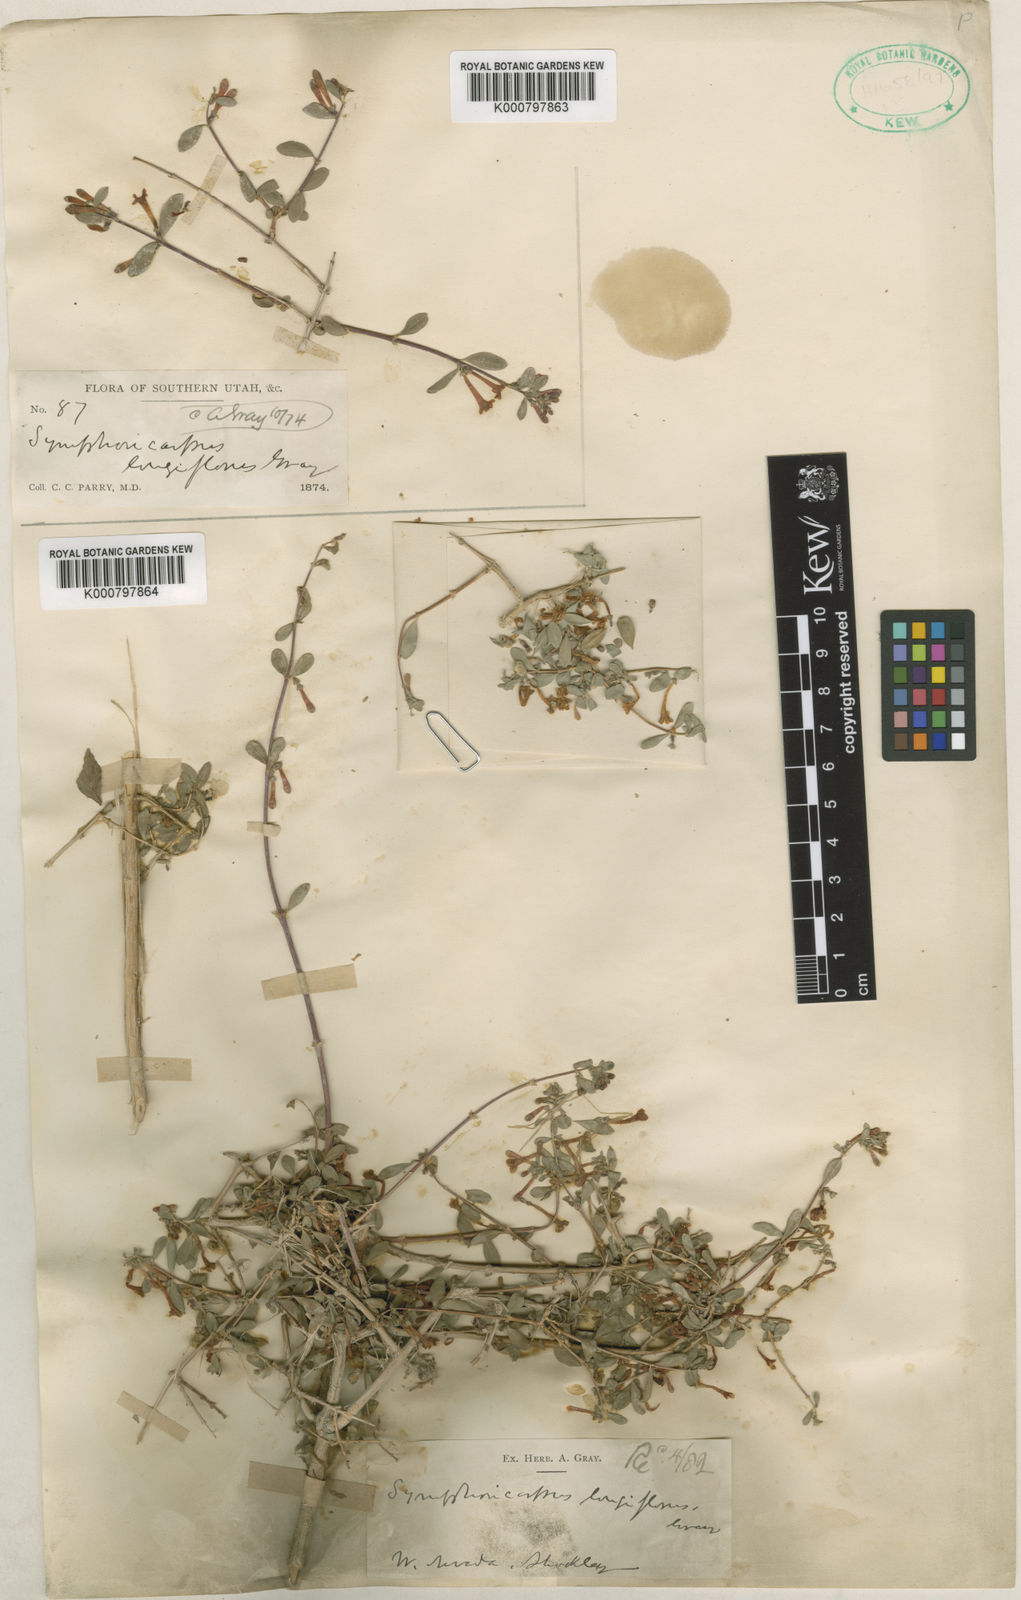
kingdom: Plantae
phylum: Tracheophyta
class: Magnoliopsida
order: Dipsacales
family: Caprifoliaceae
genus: Symphoricarpos
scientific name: Symphoricarpos longiflorus
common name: Fragrant snowberry
